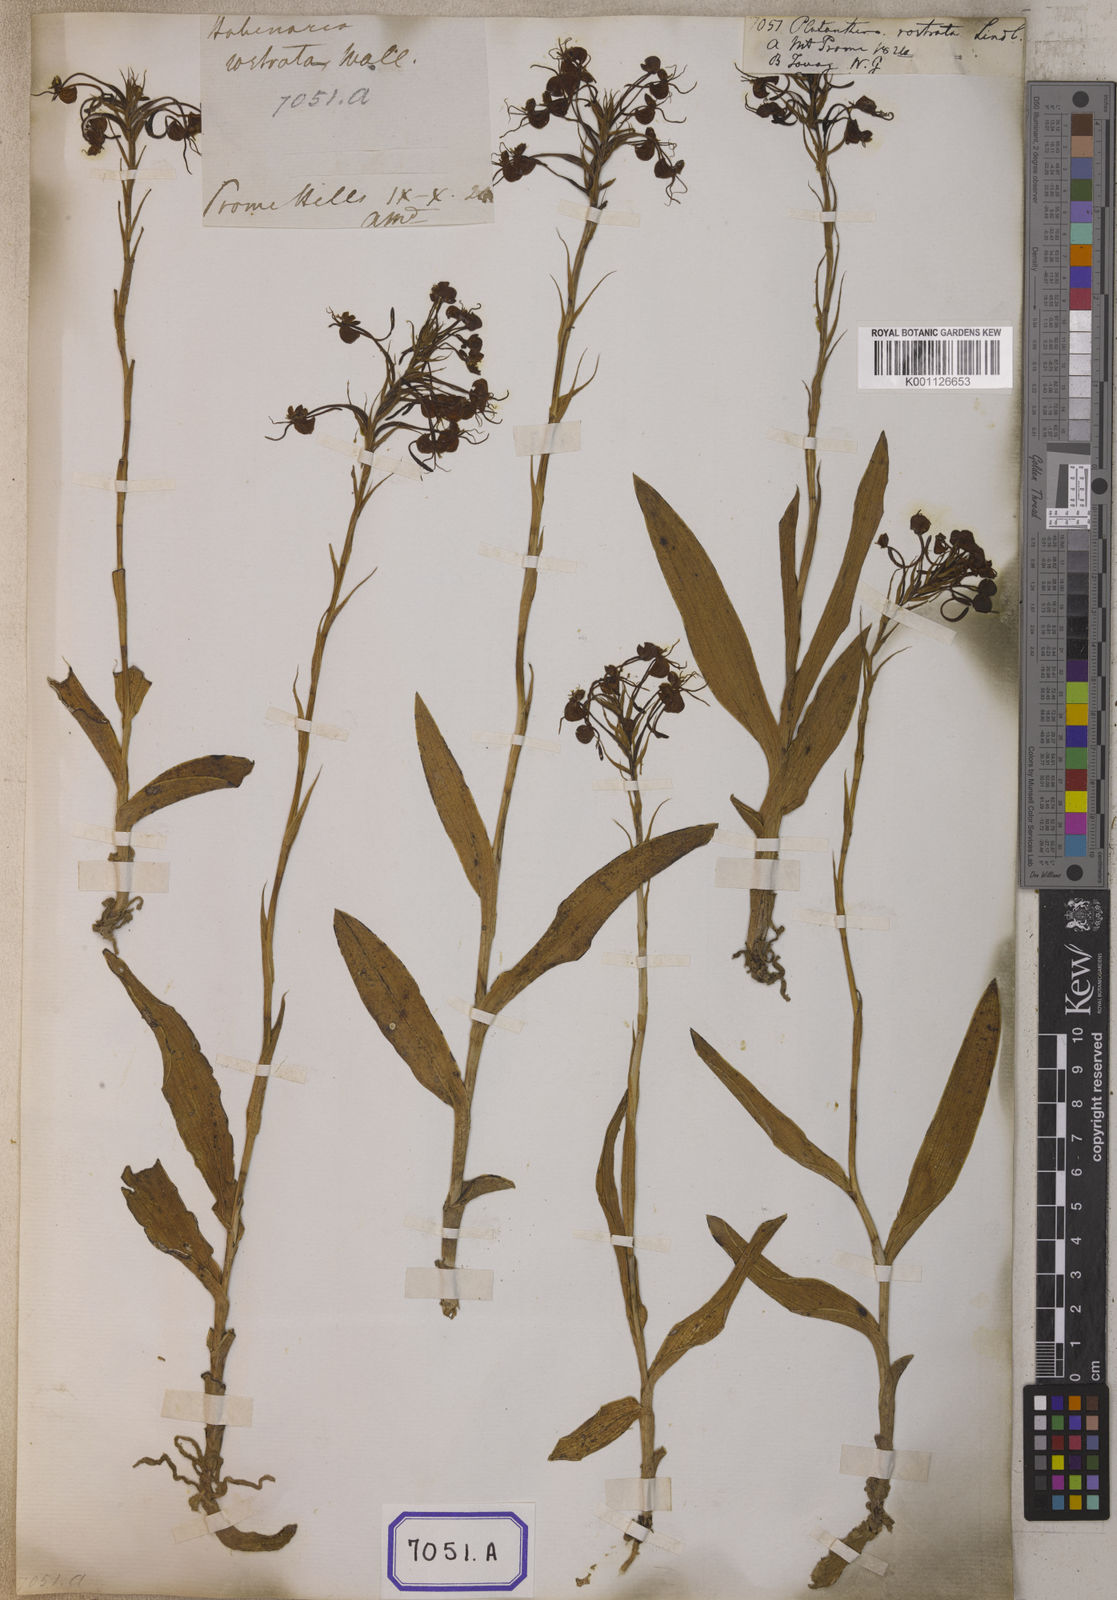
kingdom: Plantae
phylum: Tracheophyta
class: Liliopsida
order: Asparagales
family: Orchidaceae
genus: Platanthera
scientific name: Platanthera
